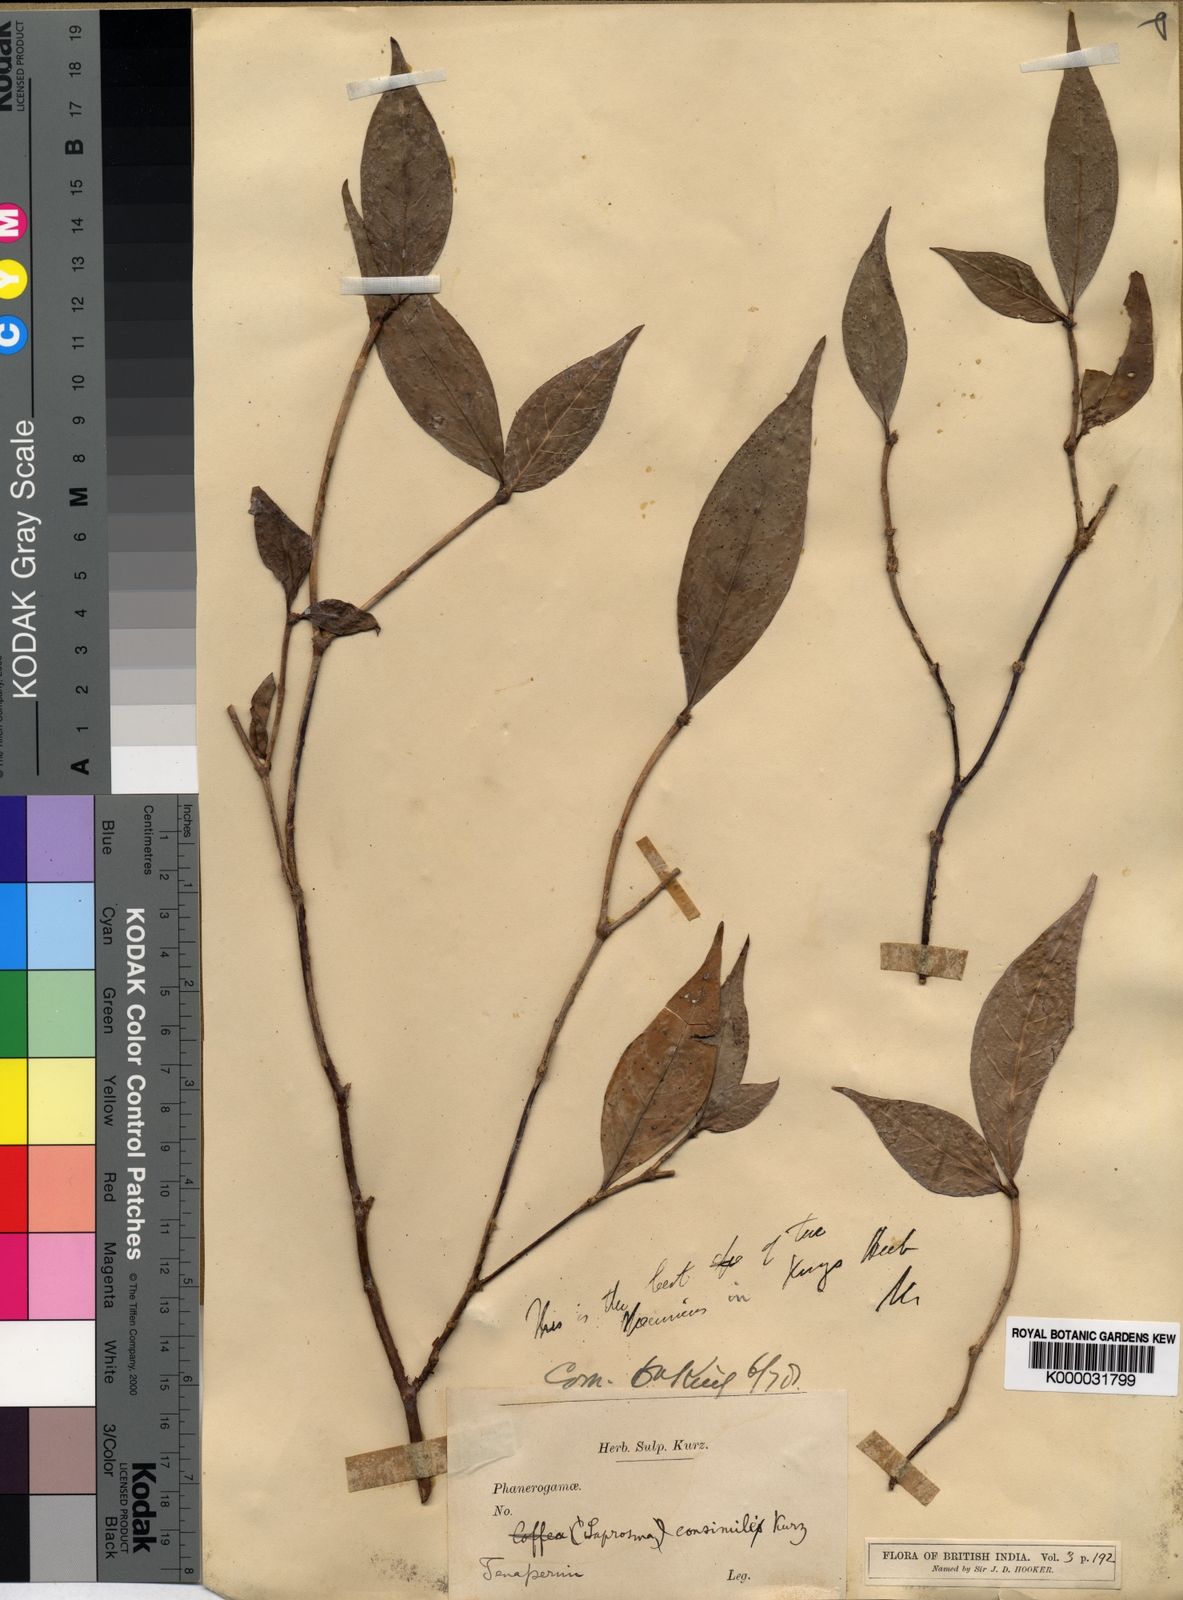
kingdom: Plantae
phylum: Tracheophyta
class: Magnoliopsida
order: Gentianales
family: Rubiaceae
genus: Saprosma
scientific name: Saprosma
